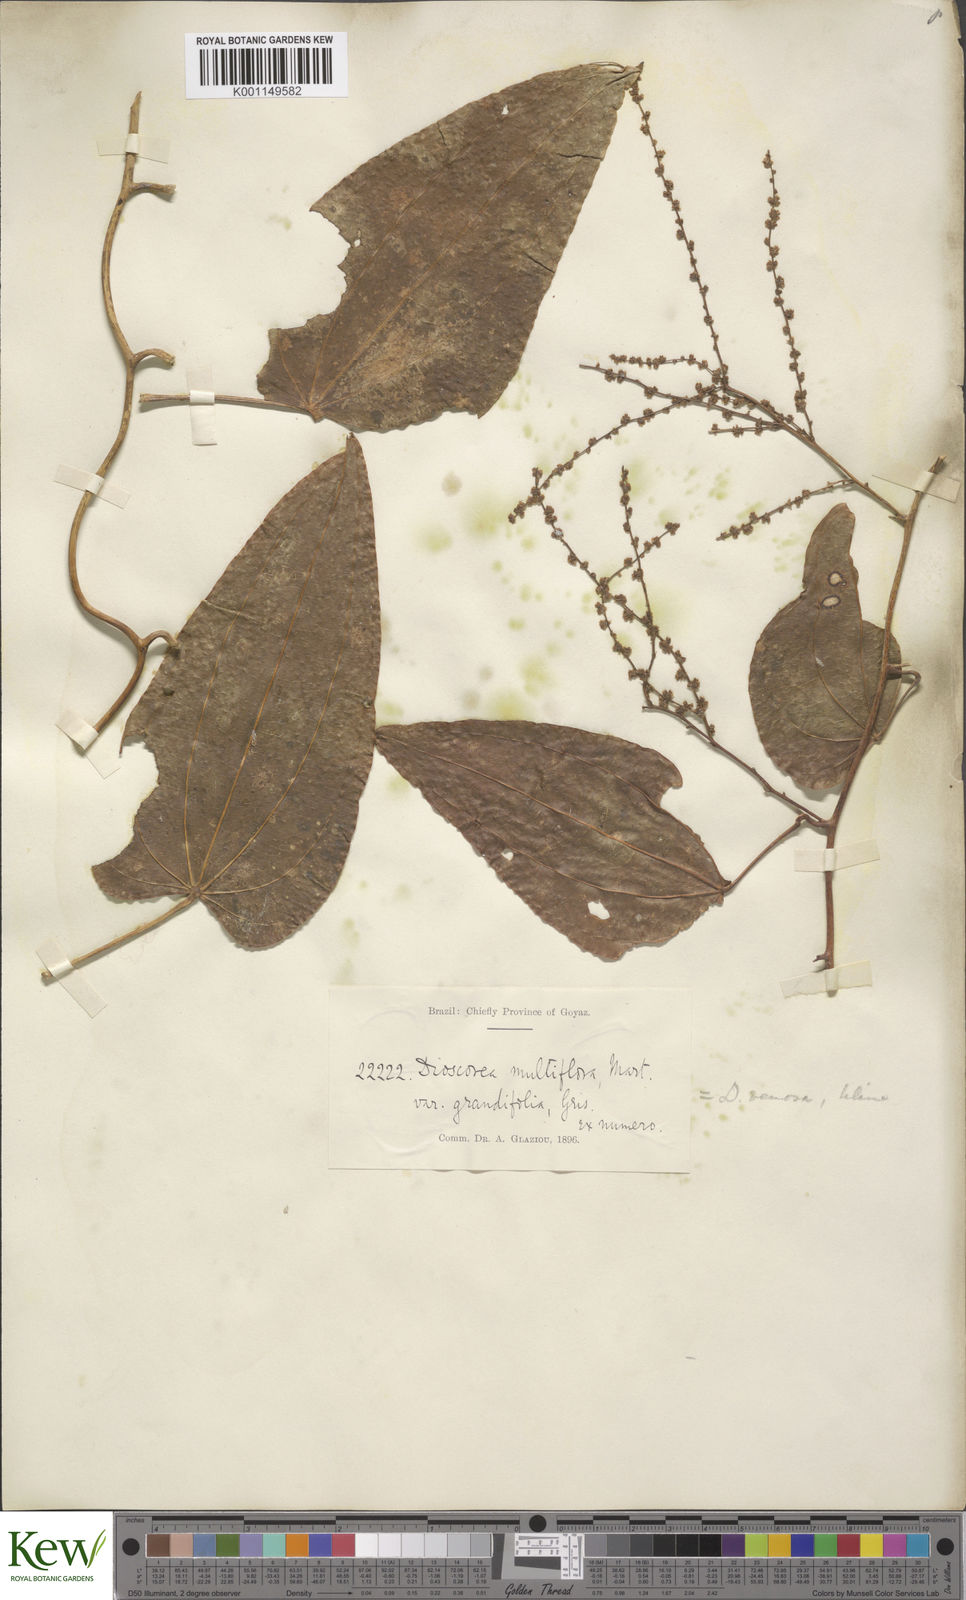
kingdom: Plantae
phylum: Tracheophyta
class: Liliopsida
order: Dioscoreales
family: Dioscoreaceae
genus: Dioscorea
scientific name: Dioscorea fodinarum
